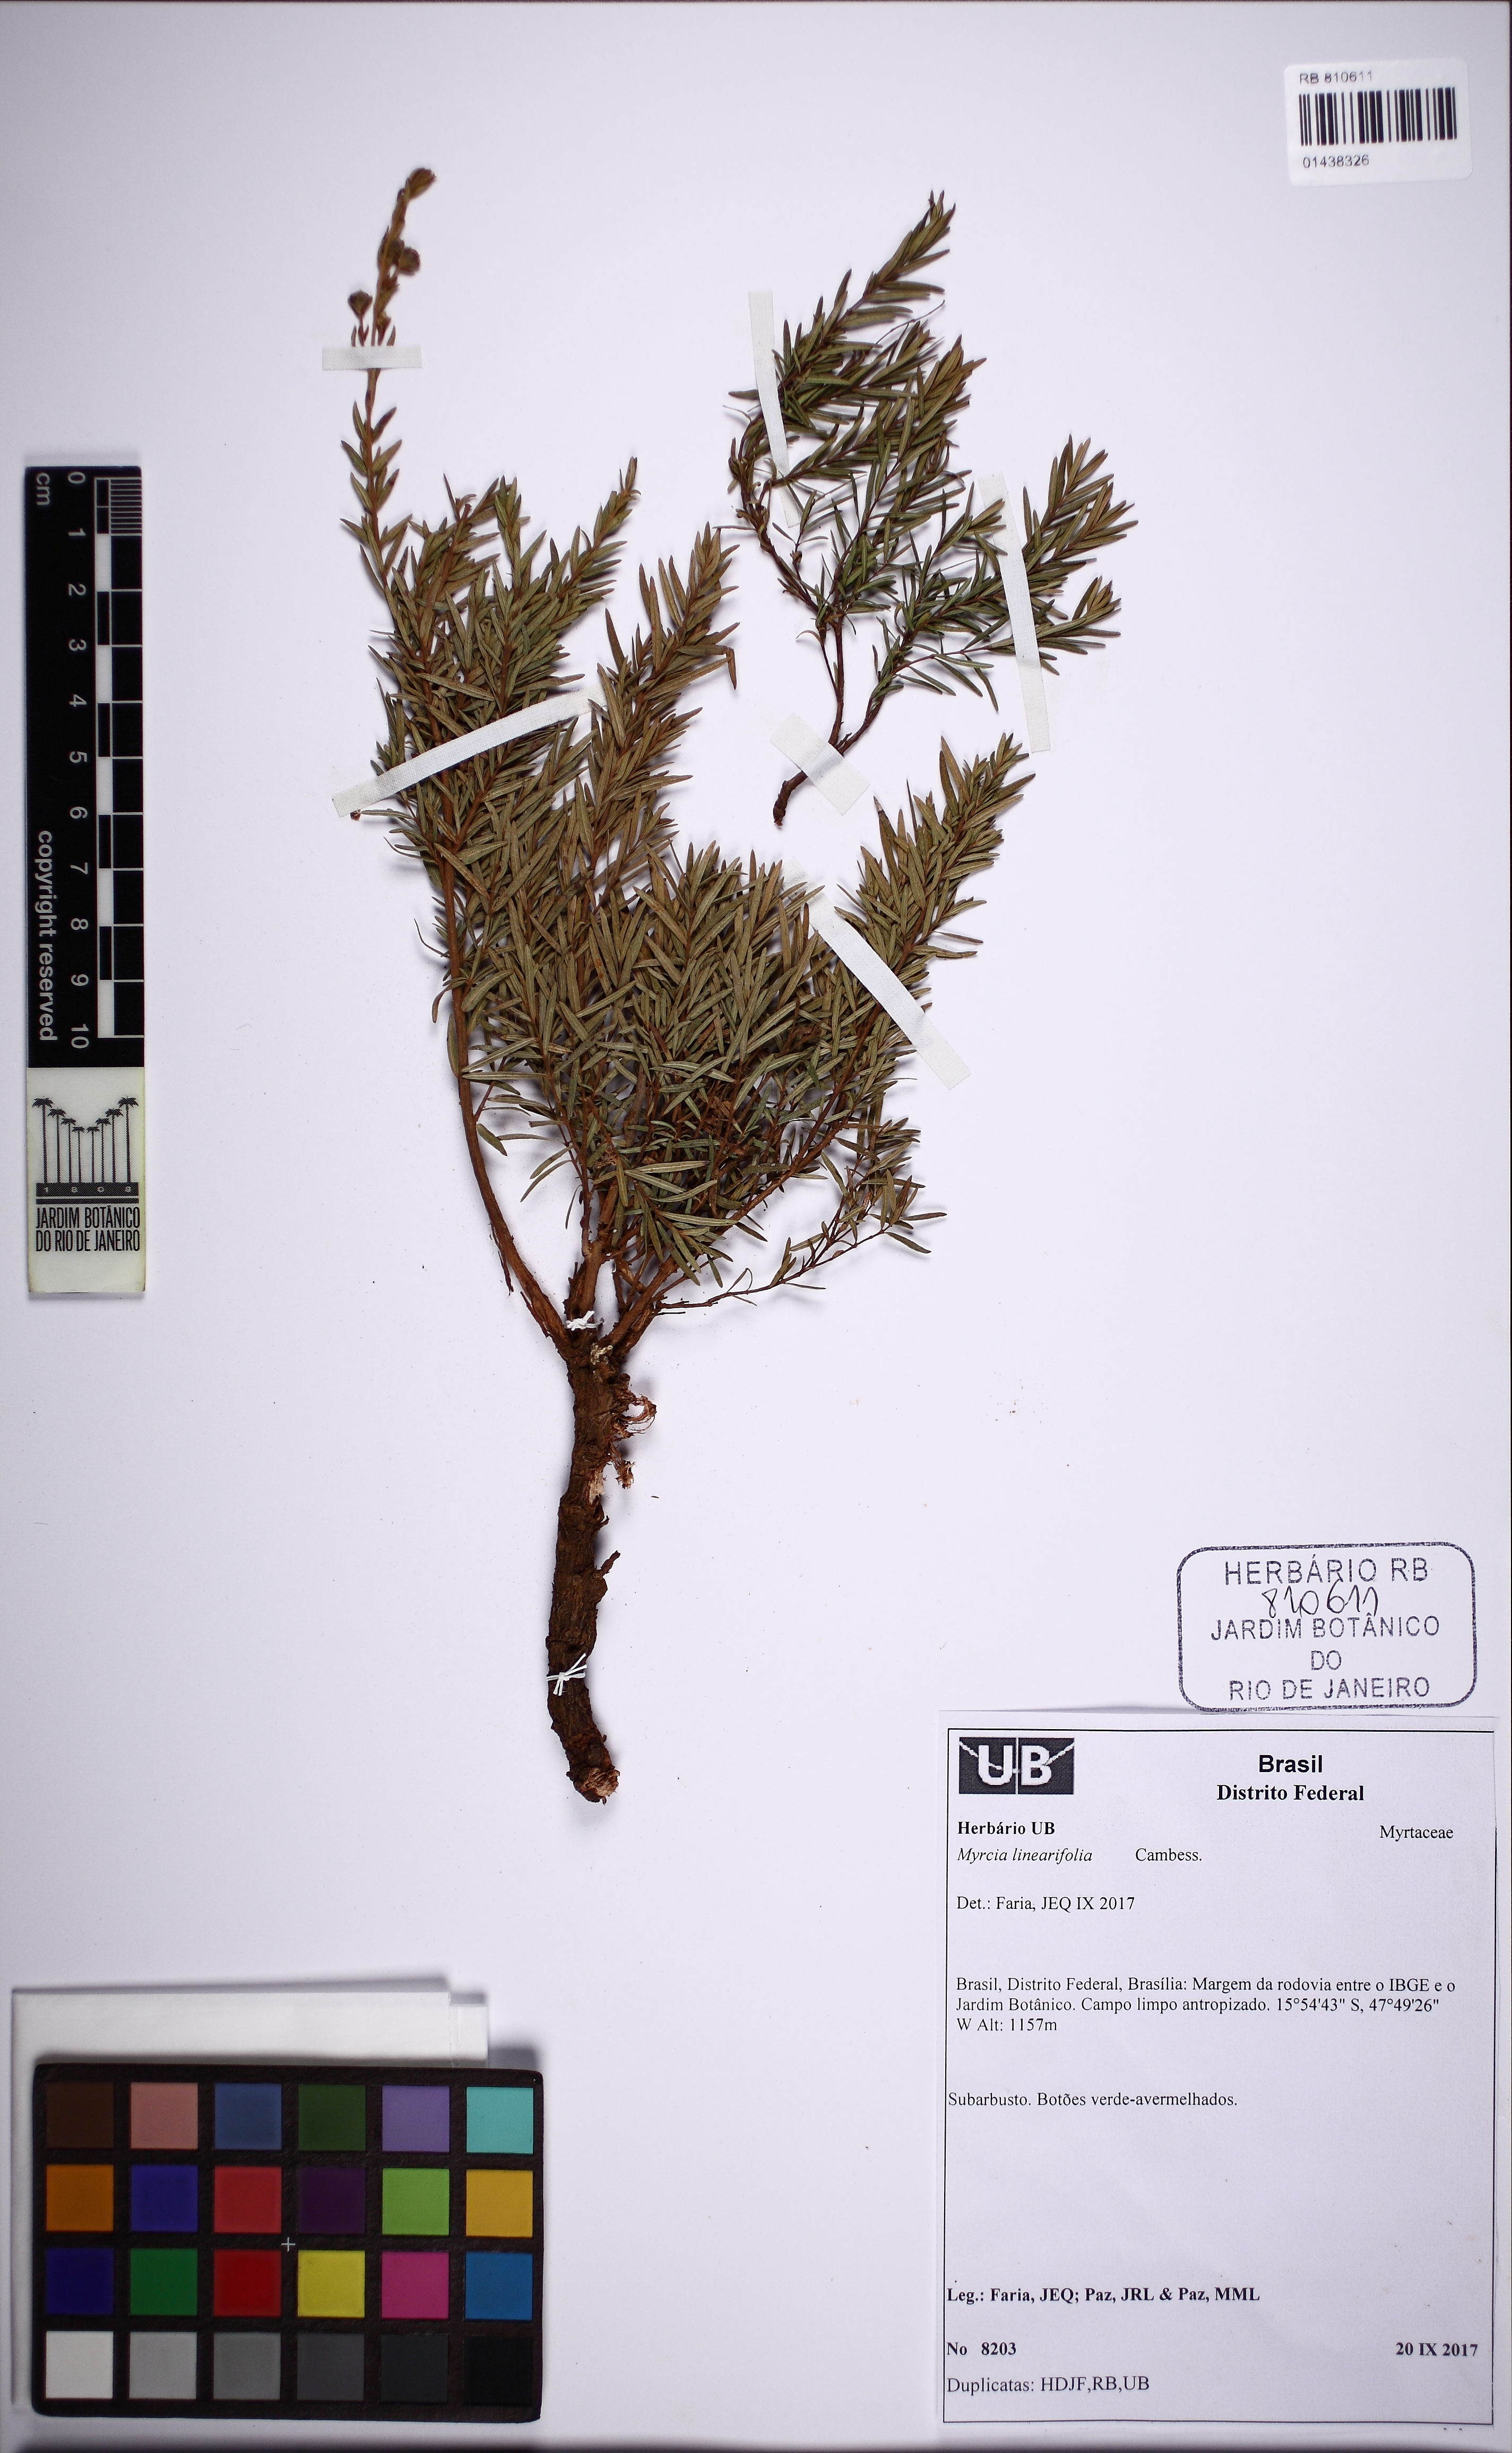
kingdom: Plantae
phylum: Tracheophyta
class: Magnoliopsida
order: Myrtales
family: Myrtaceae
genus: Myrcia
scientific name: Myrcia linearifolia
